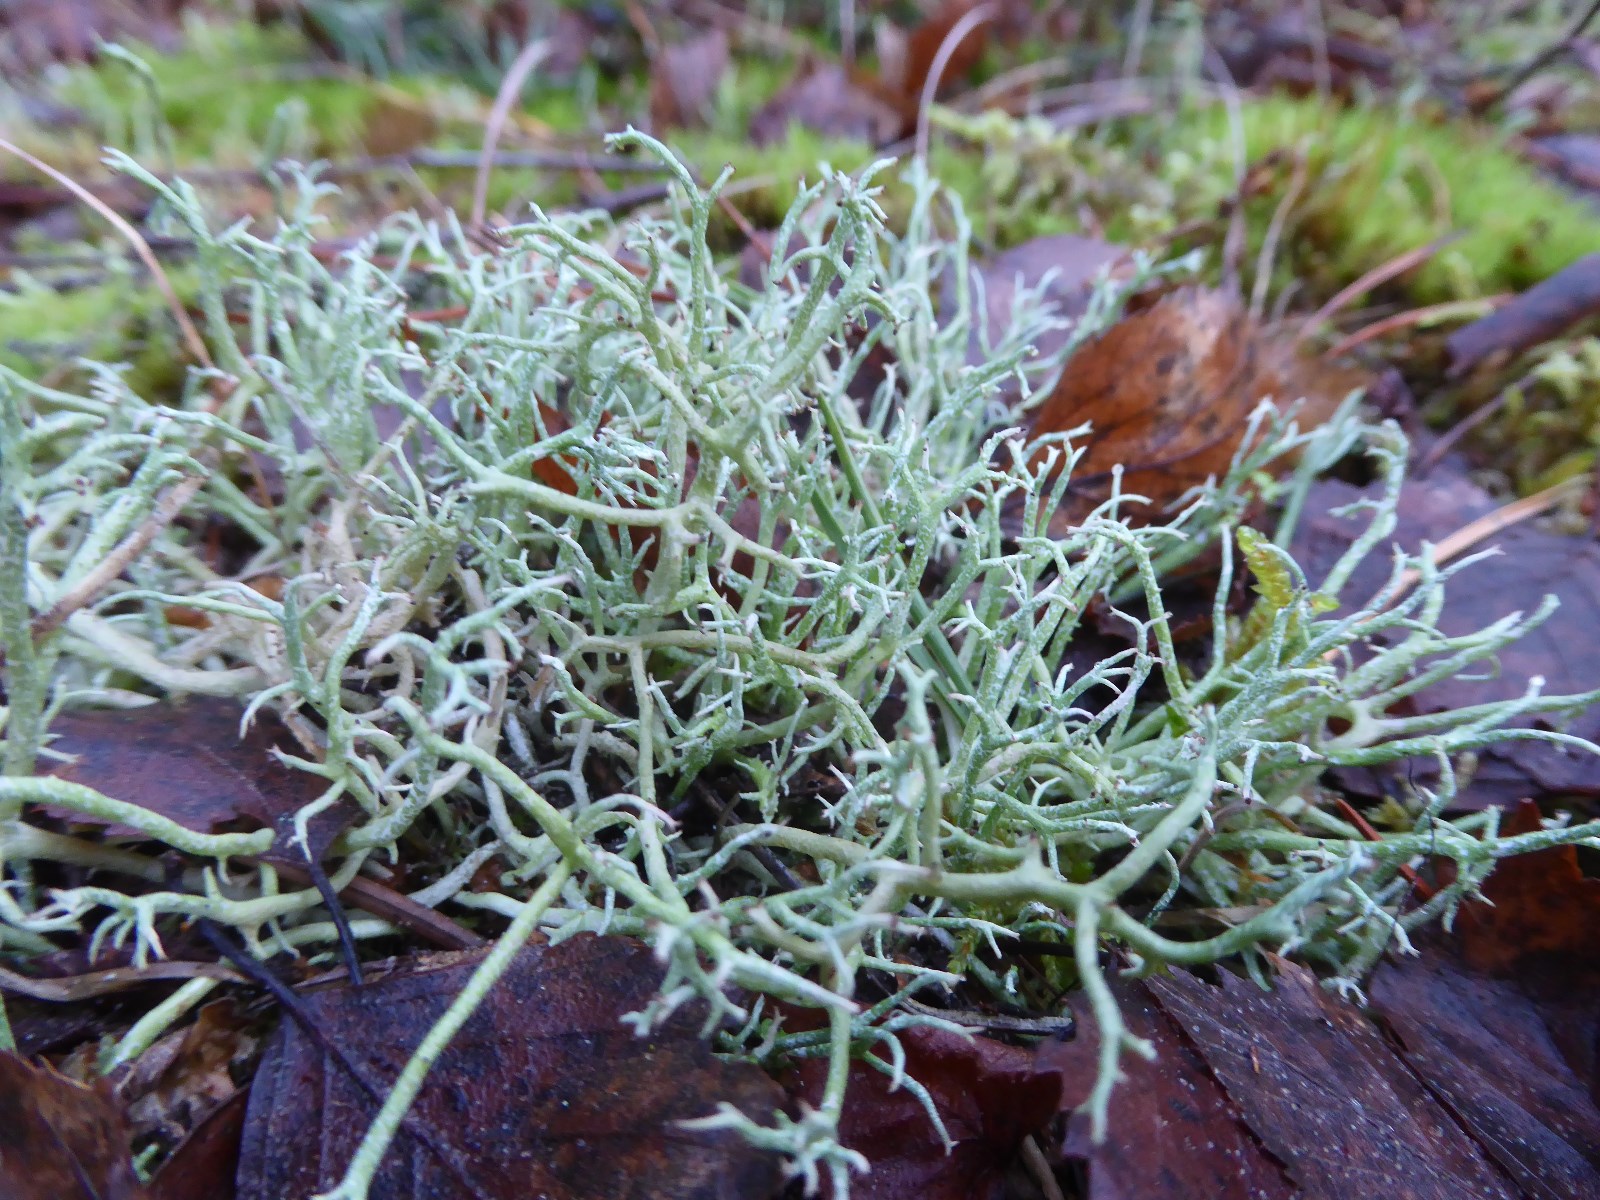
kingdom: Fungi
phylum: Ascomycota
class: Lecanoromycetes
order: Lecanorales
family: Cladoniaceae
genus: Cladonia
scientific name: Cladonia furcata
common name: kløftet bægerlav
